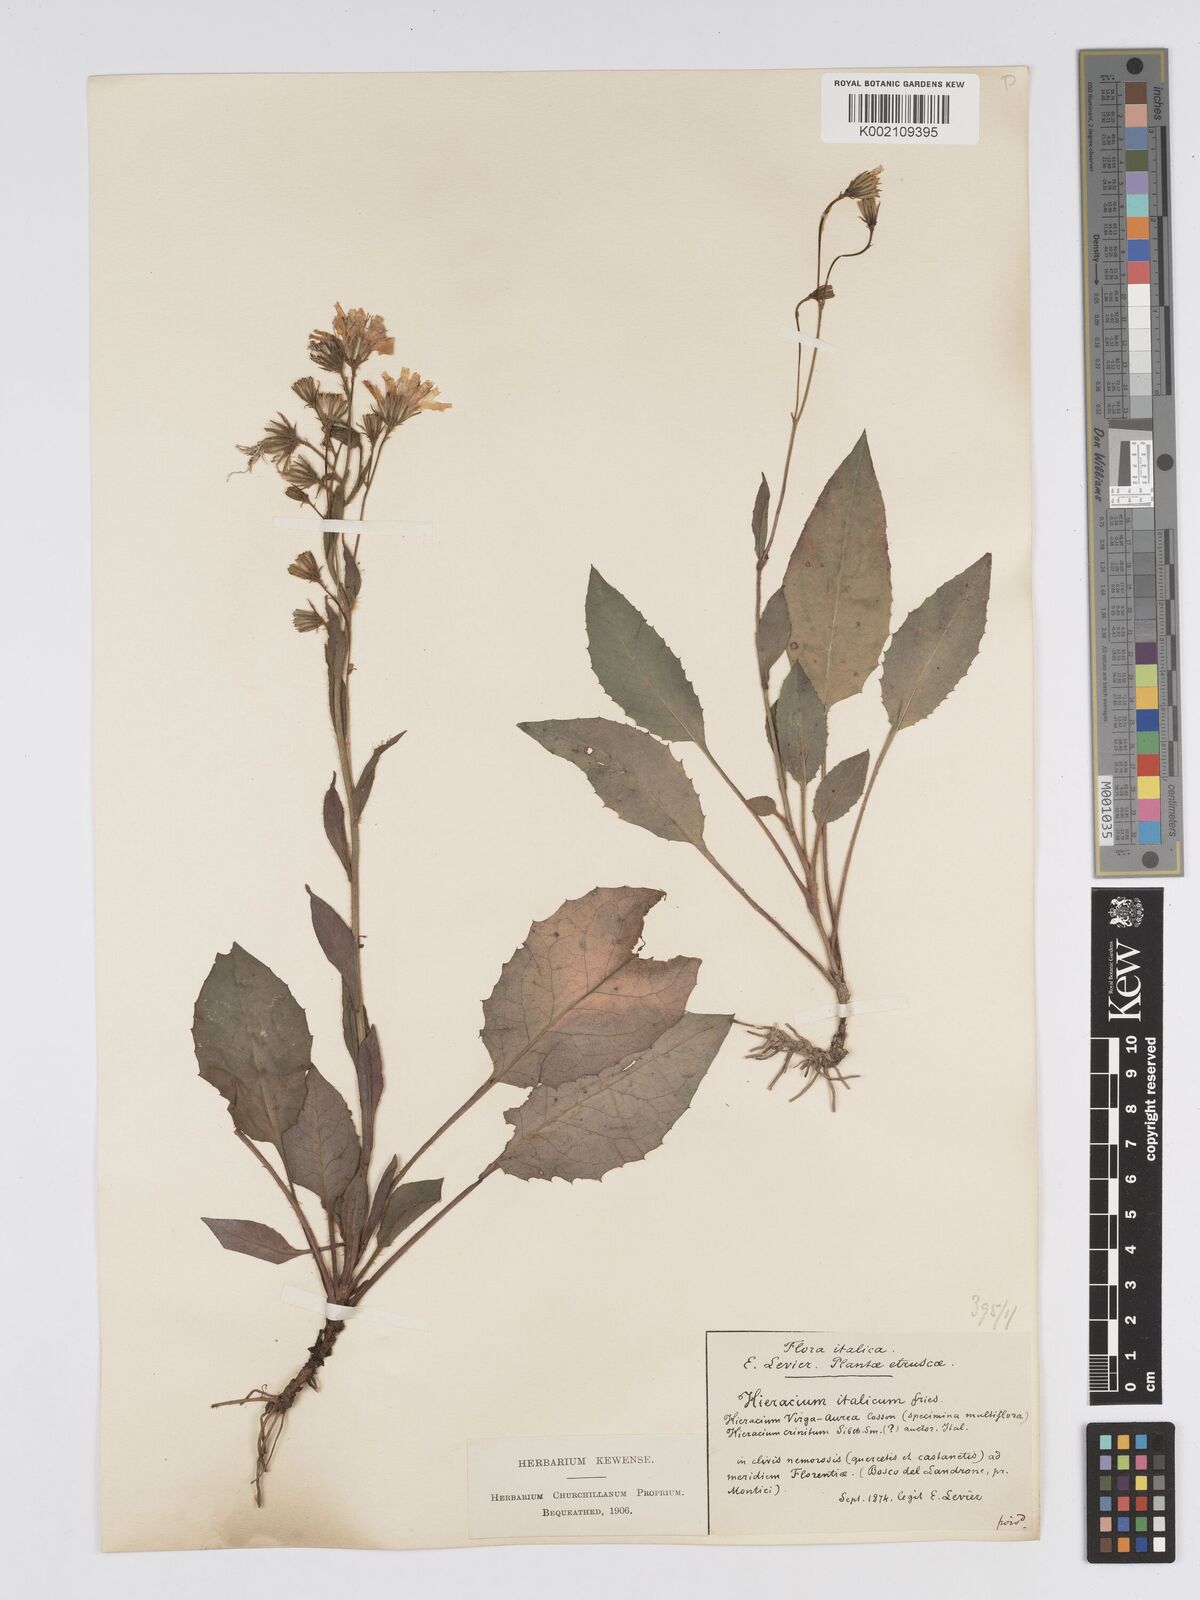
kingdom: Plantae
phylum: Tracheophyta
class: Magnoliopsida
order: Asterales
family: Asteraceae
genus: Hieracium
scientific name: Hieracium racemosum
